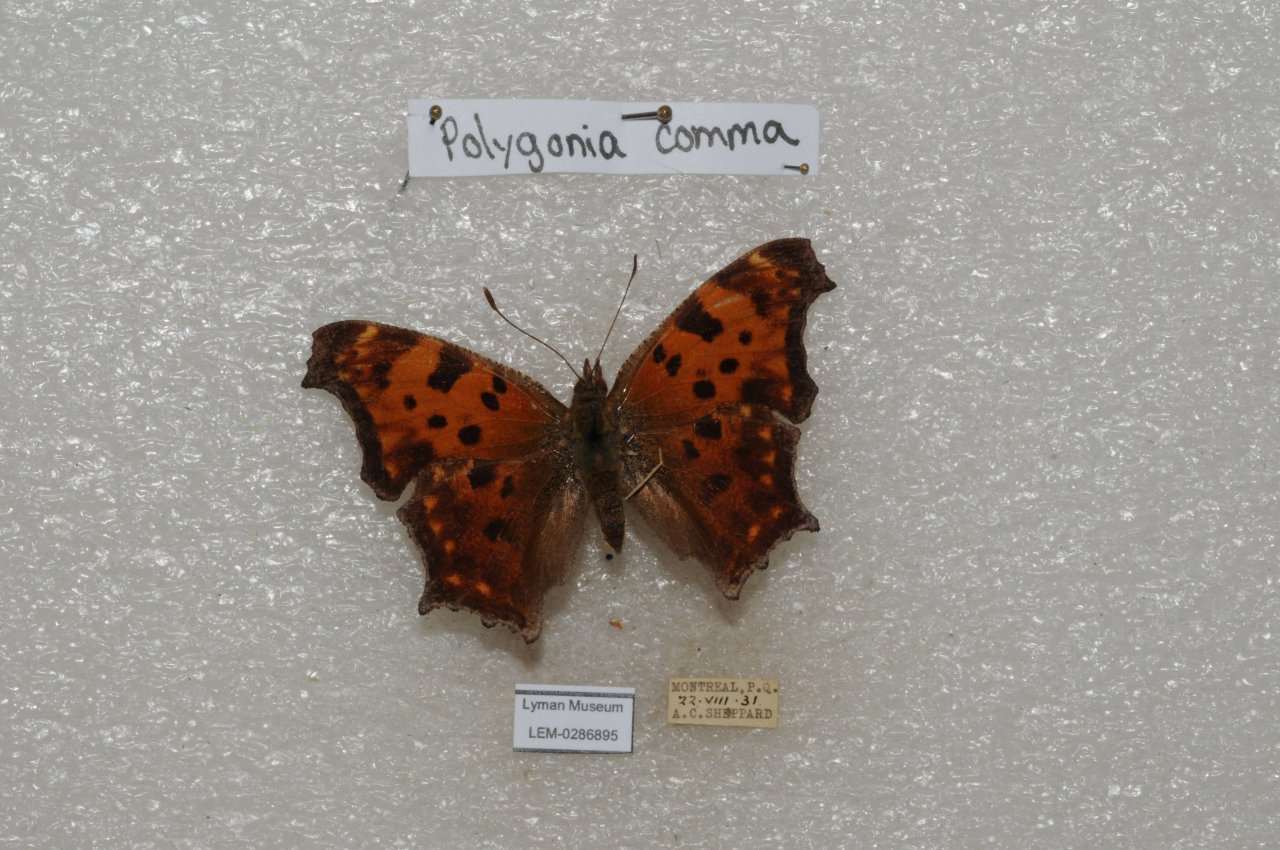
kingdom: Animalia
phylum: Arthropoda
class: Insecta
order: Lepidoptera
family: Nymphalidae
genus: Polygonia
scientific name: Polygonia comma
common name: Eastern Comma
